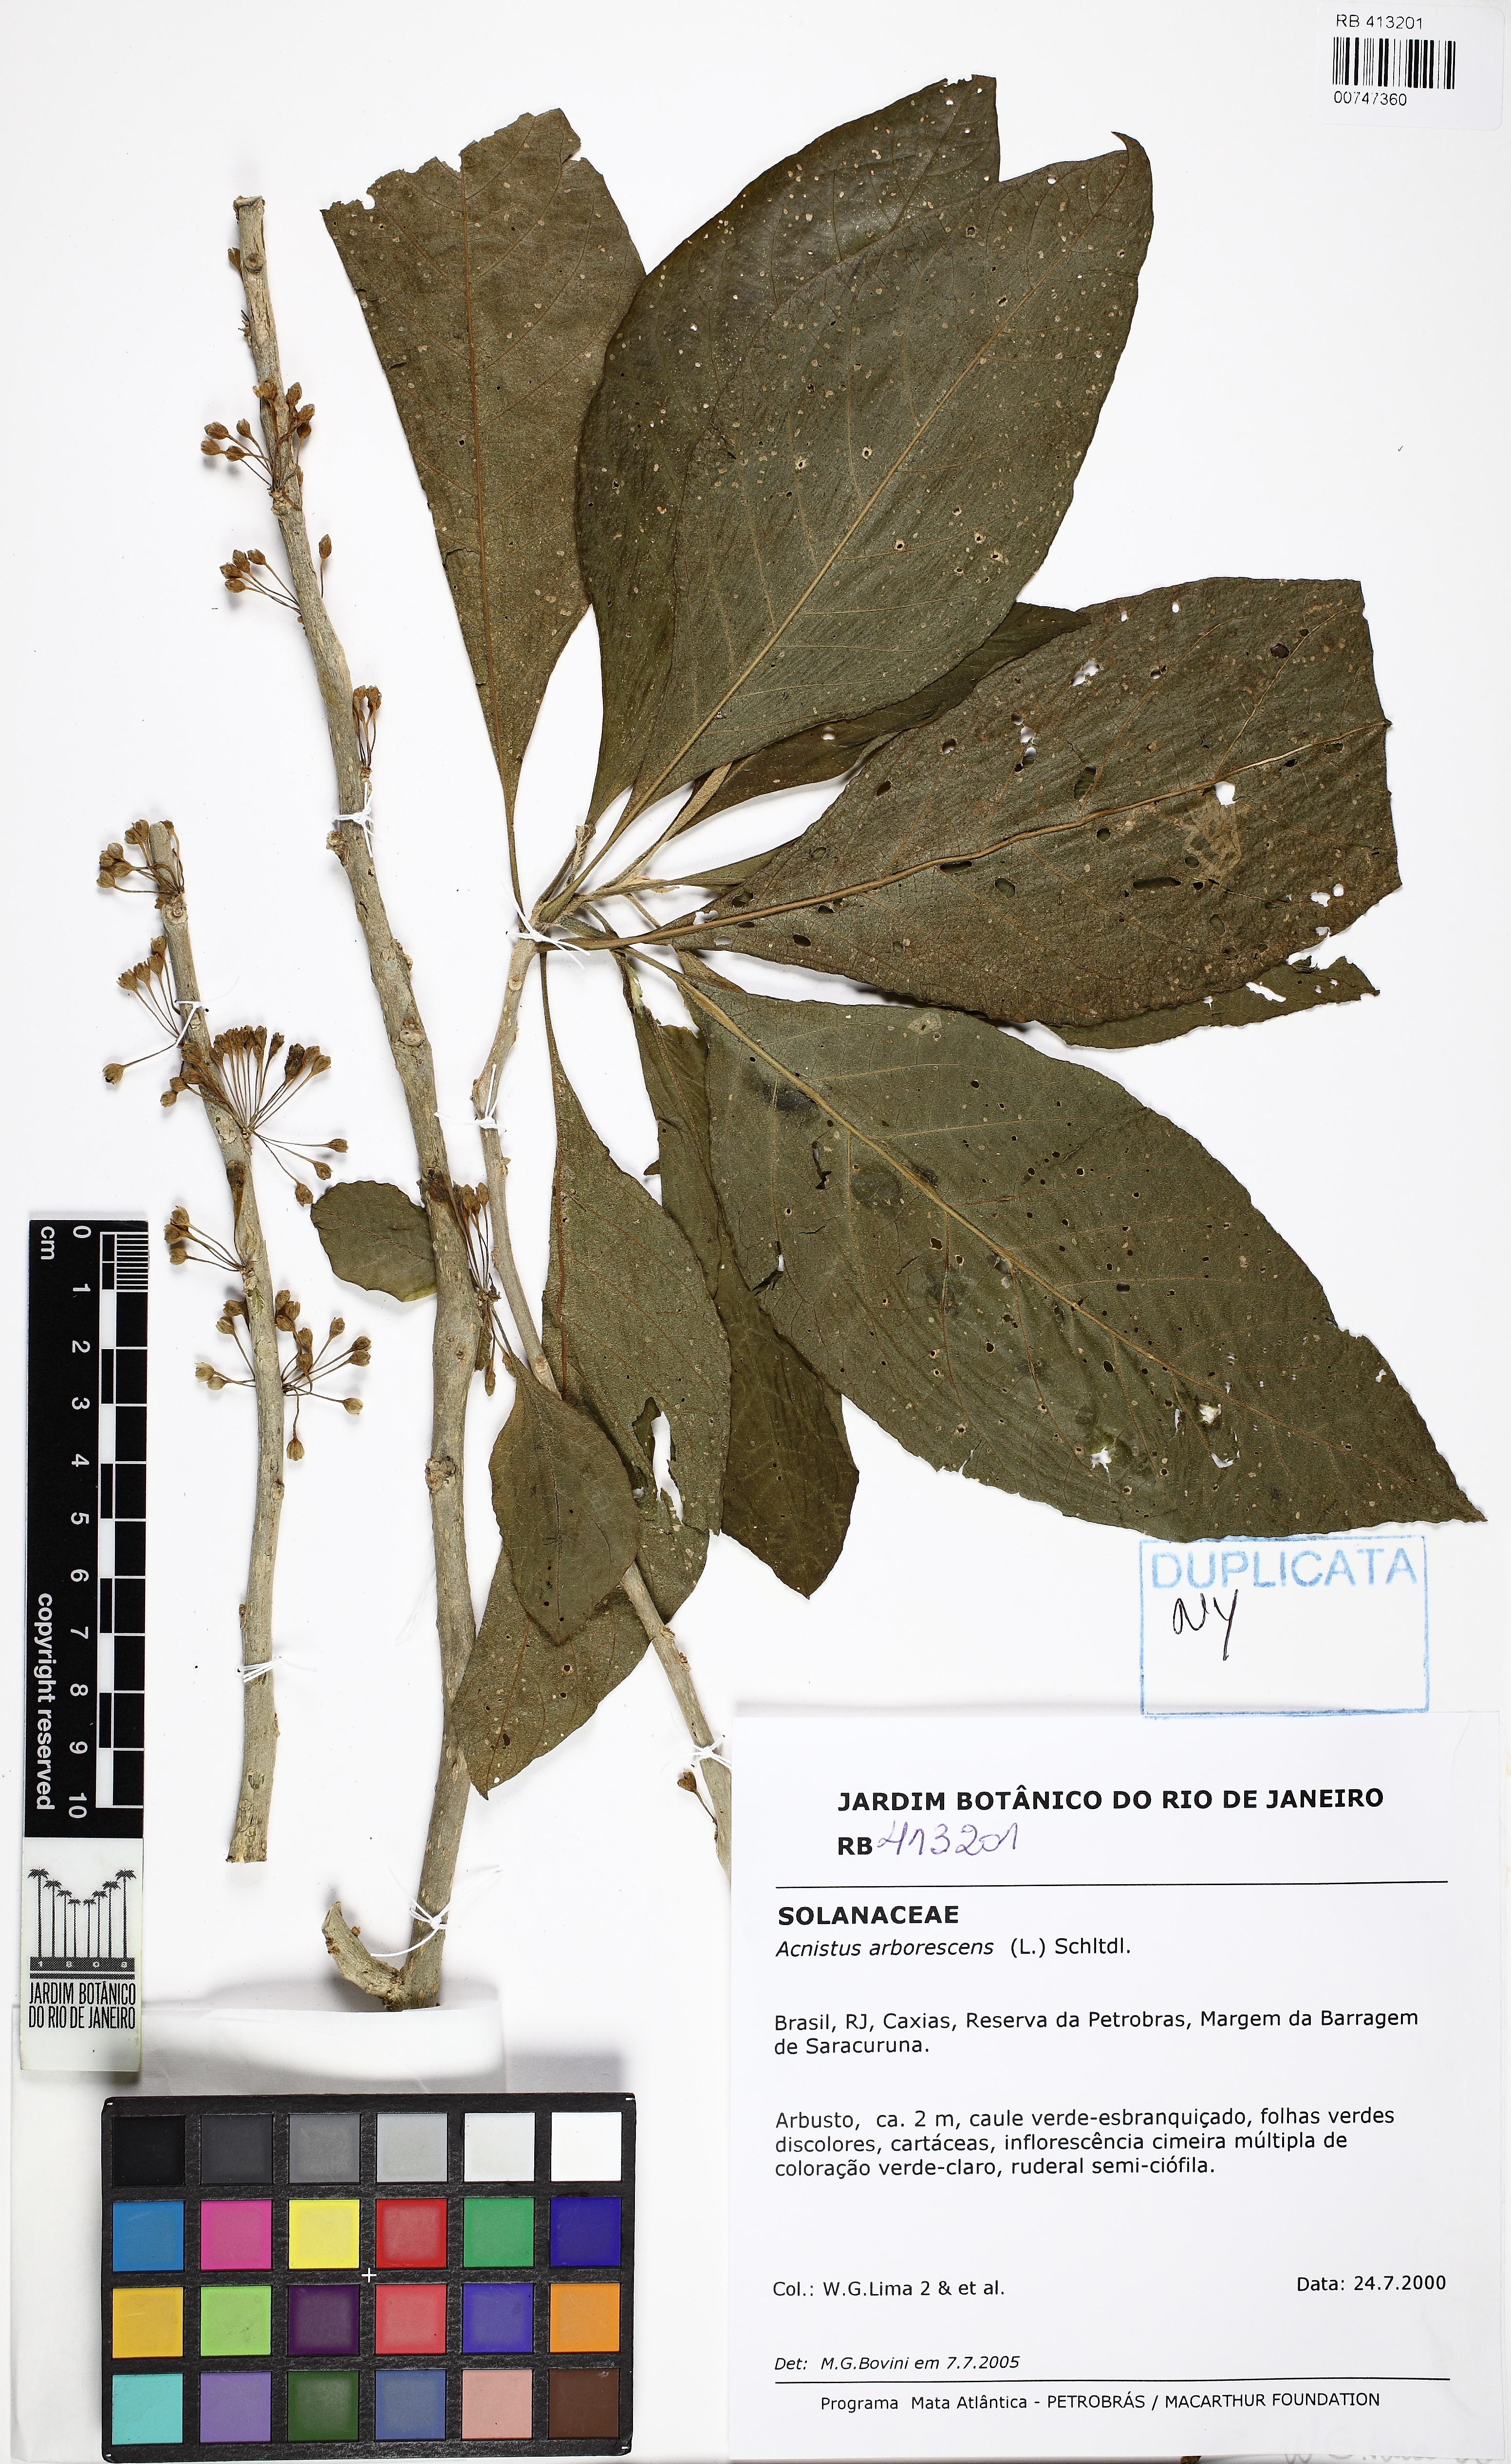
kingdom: Plantae
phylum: Tracheophyta
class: Magnoliopsida
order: Solanales
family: Solanaceae
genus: Iochroma
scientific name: Iochroma arborescens
